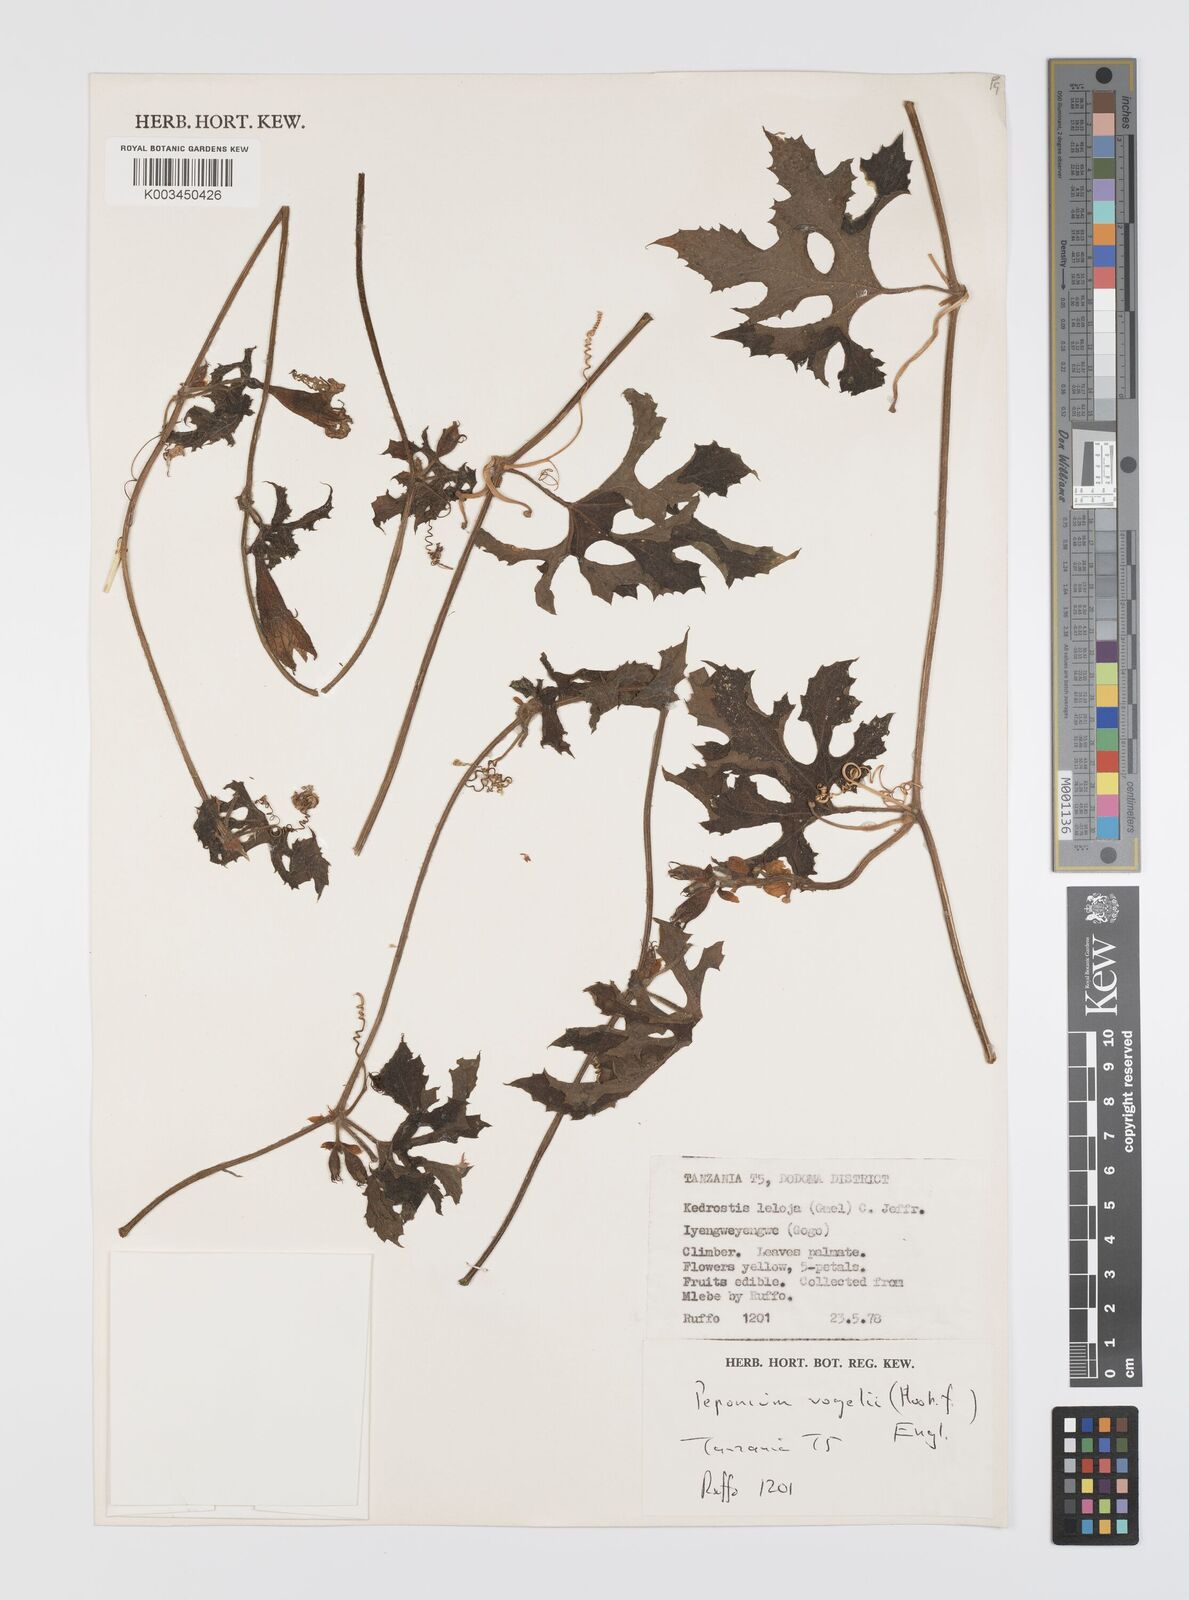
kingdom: Plantae
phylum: Tracheophyta
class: Magnoliopsida
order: Cucurbitales
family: Cucurbitaceae
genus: Peponium
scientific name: Peponium vogelii
